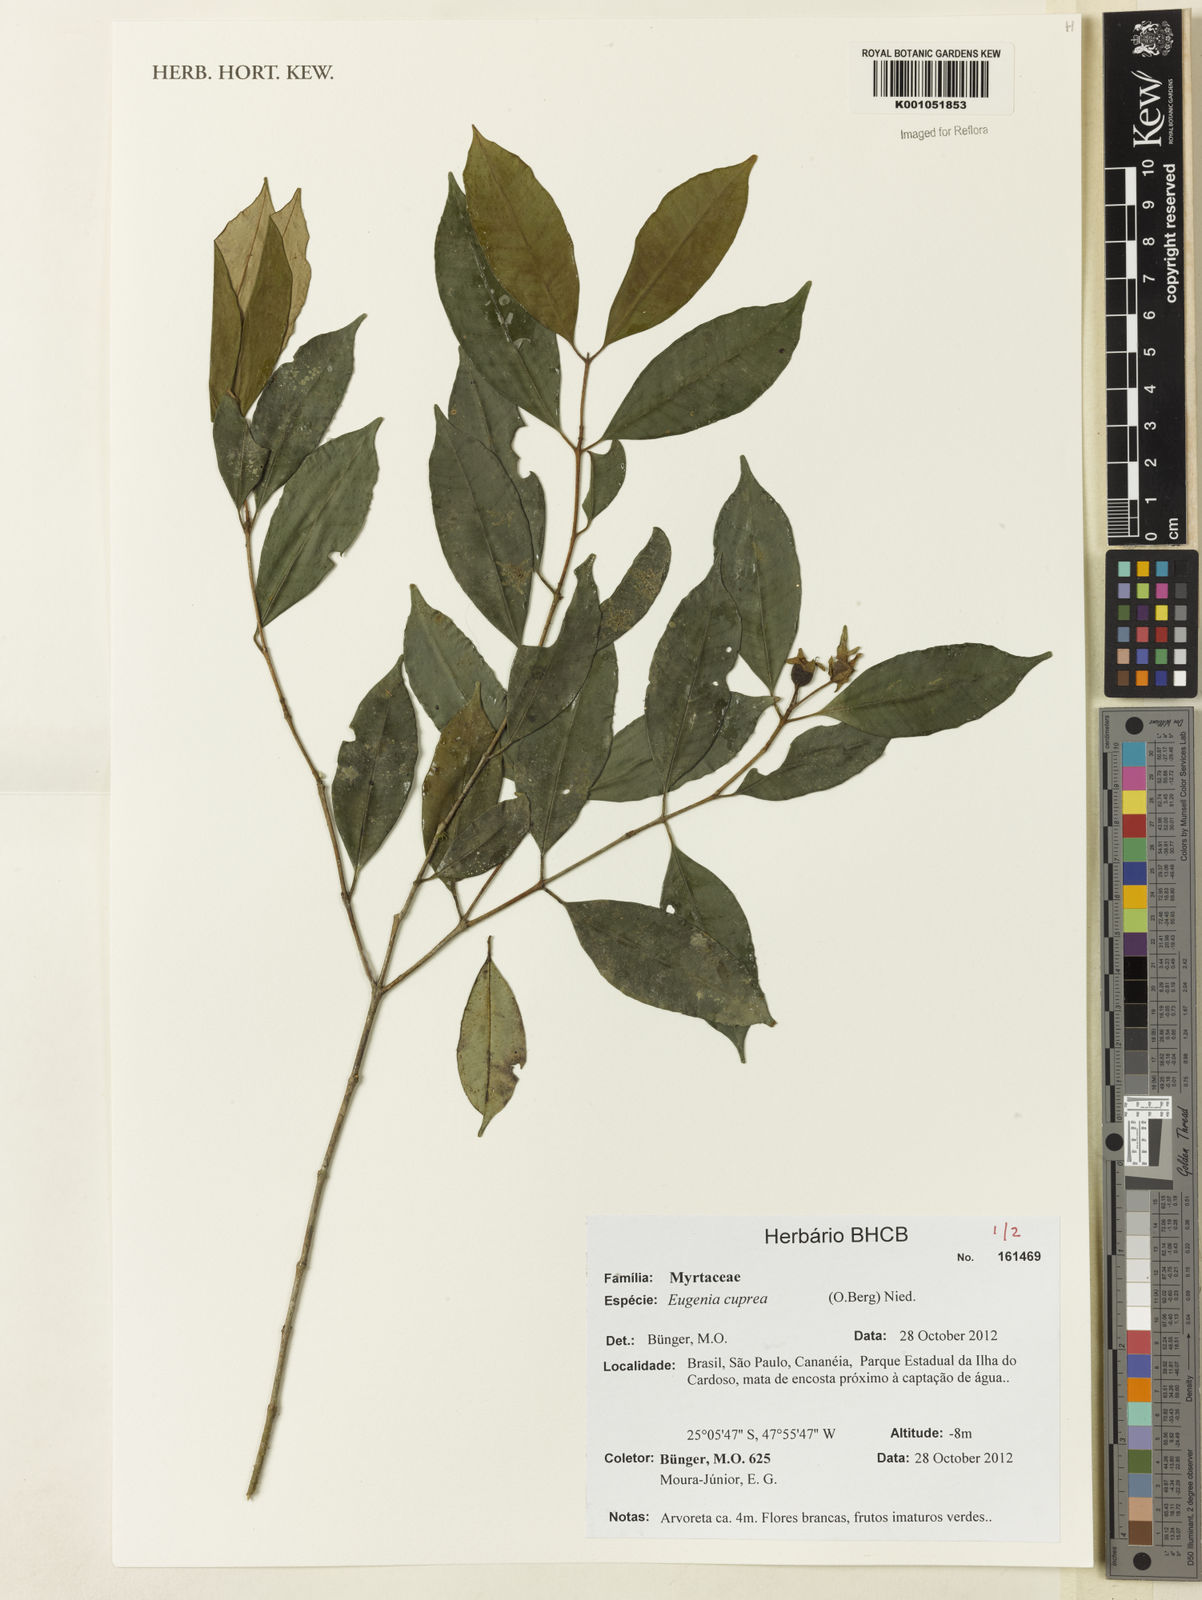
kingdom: Plantae
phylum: Tracheophyta
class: Magnoliopsida
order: Myrtales
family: Myrtaceae
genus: Eugenia
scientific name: Eugenia cuprea
